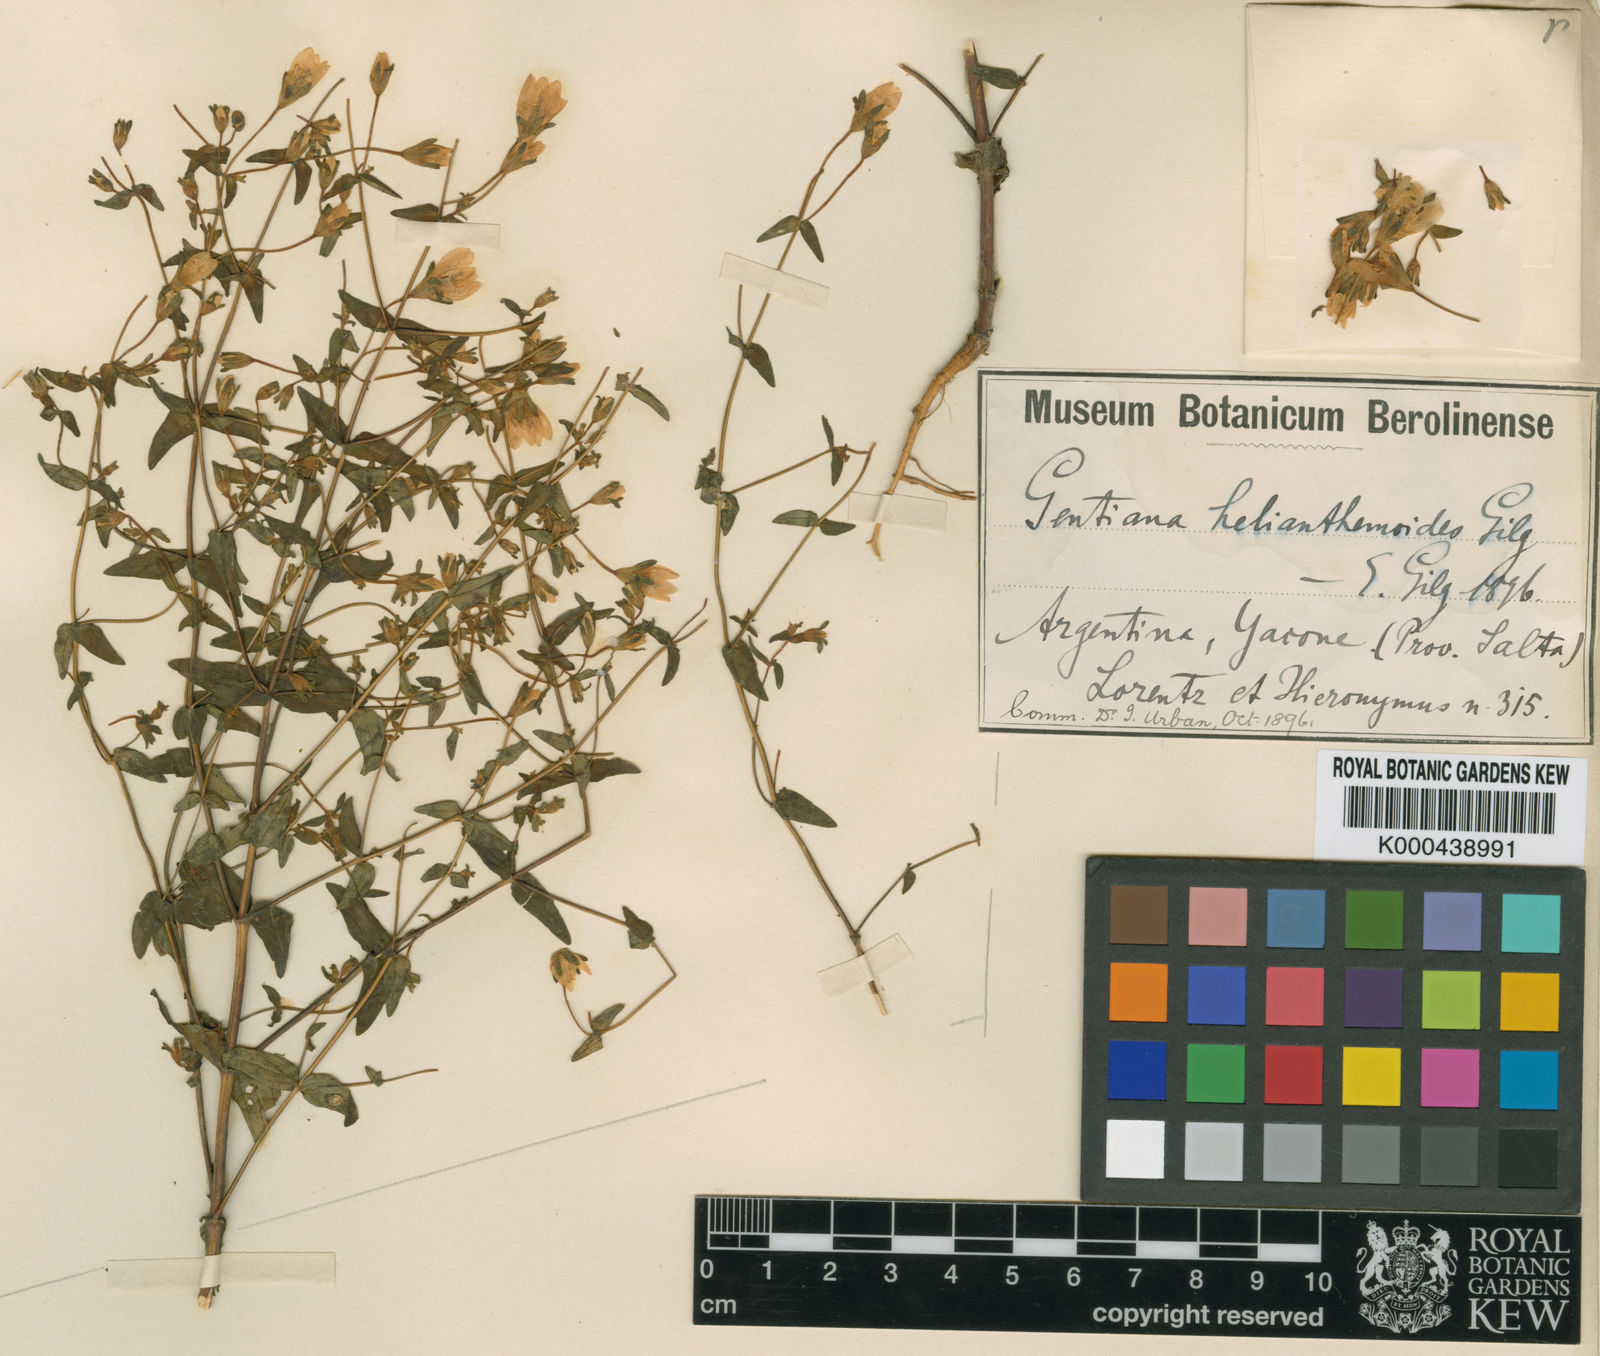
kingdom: Plantae
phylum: Tracheophyta
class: Magnoliopsida
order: Gentianales
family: Gentianaceae
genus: Gentianella
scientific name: Gentianella helianthemoides
